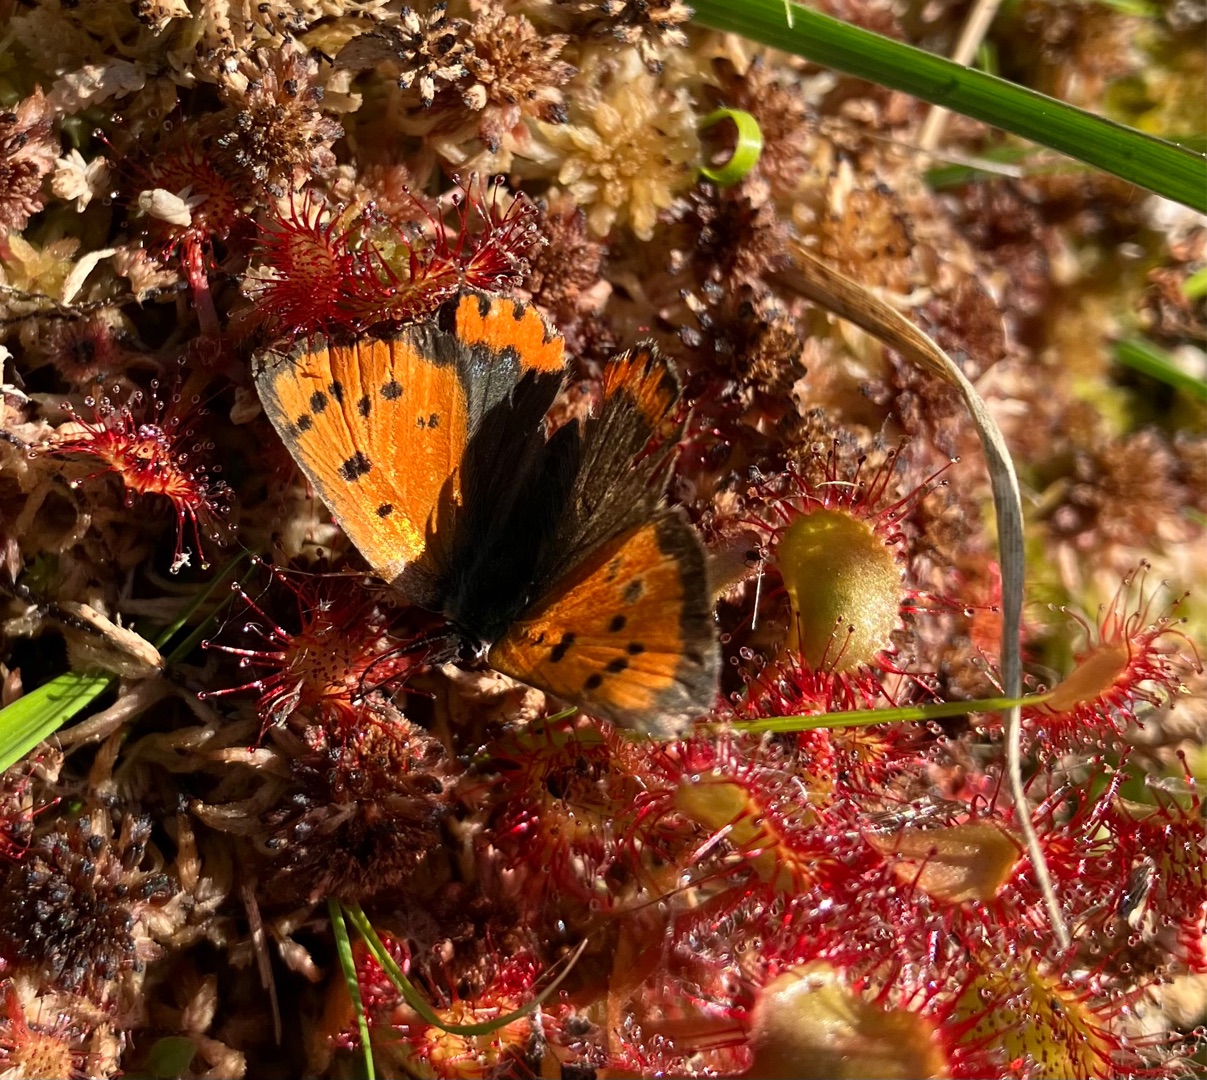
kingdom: Animalia
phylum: Arthropoda
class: Insecta
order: Lepidoptera
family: Lycaenidae
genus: Lycaena
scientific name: Lycaena phlaeas
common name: Lille ildfugl
